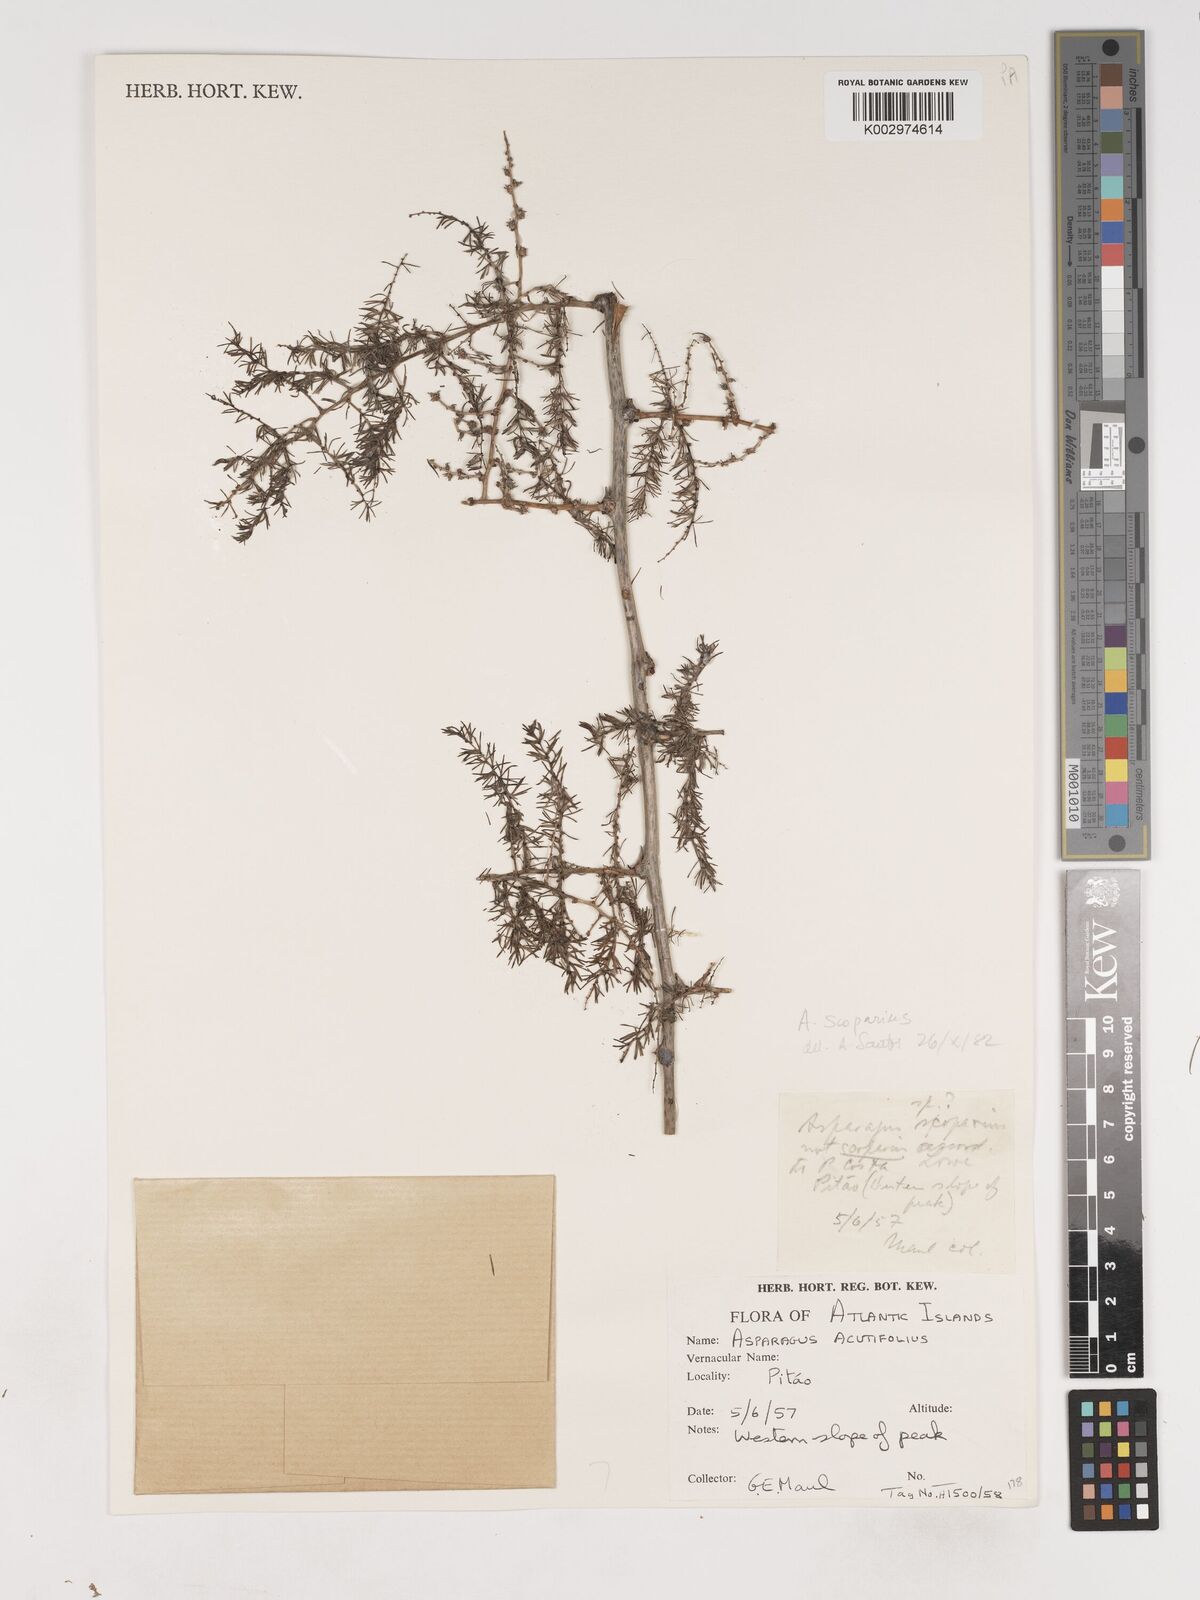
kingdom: Plantae
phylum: Tracheophyta
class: Liliopsida
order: Asparagales
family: Asparagaceae
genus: Asparagus
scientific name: Asparagus acutifolius
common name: Wild asparagus
